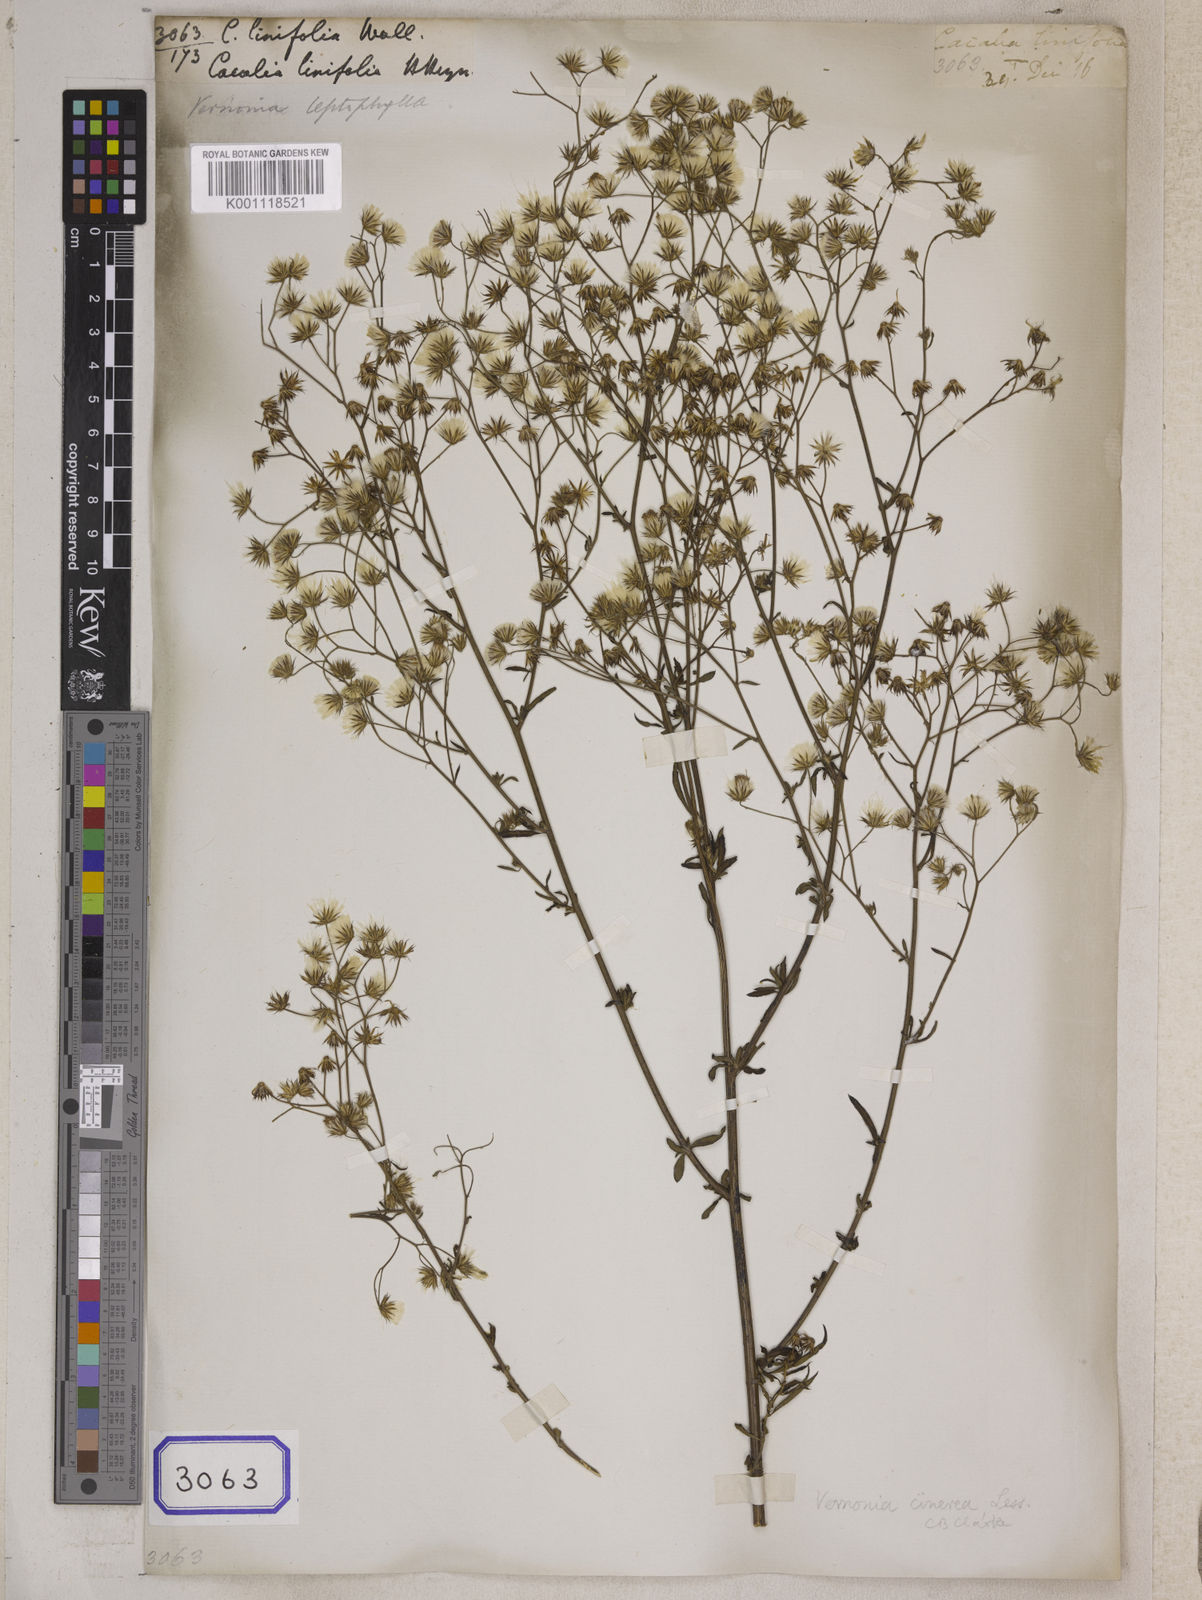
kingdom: Plantae
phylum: Tracheophyta
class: Magnoliopsida
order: Asterales
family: Asteraceae
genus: Cyanthillium
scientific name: Cyanthillium cinereum
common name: Little ironweed
